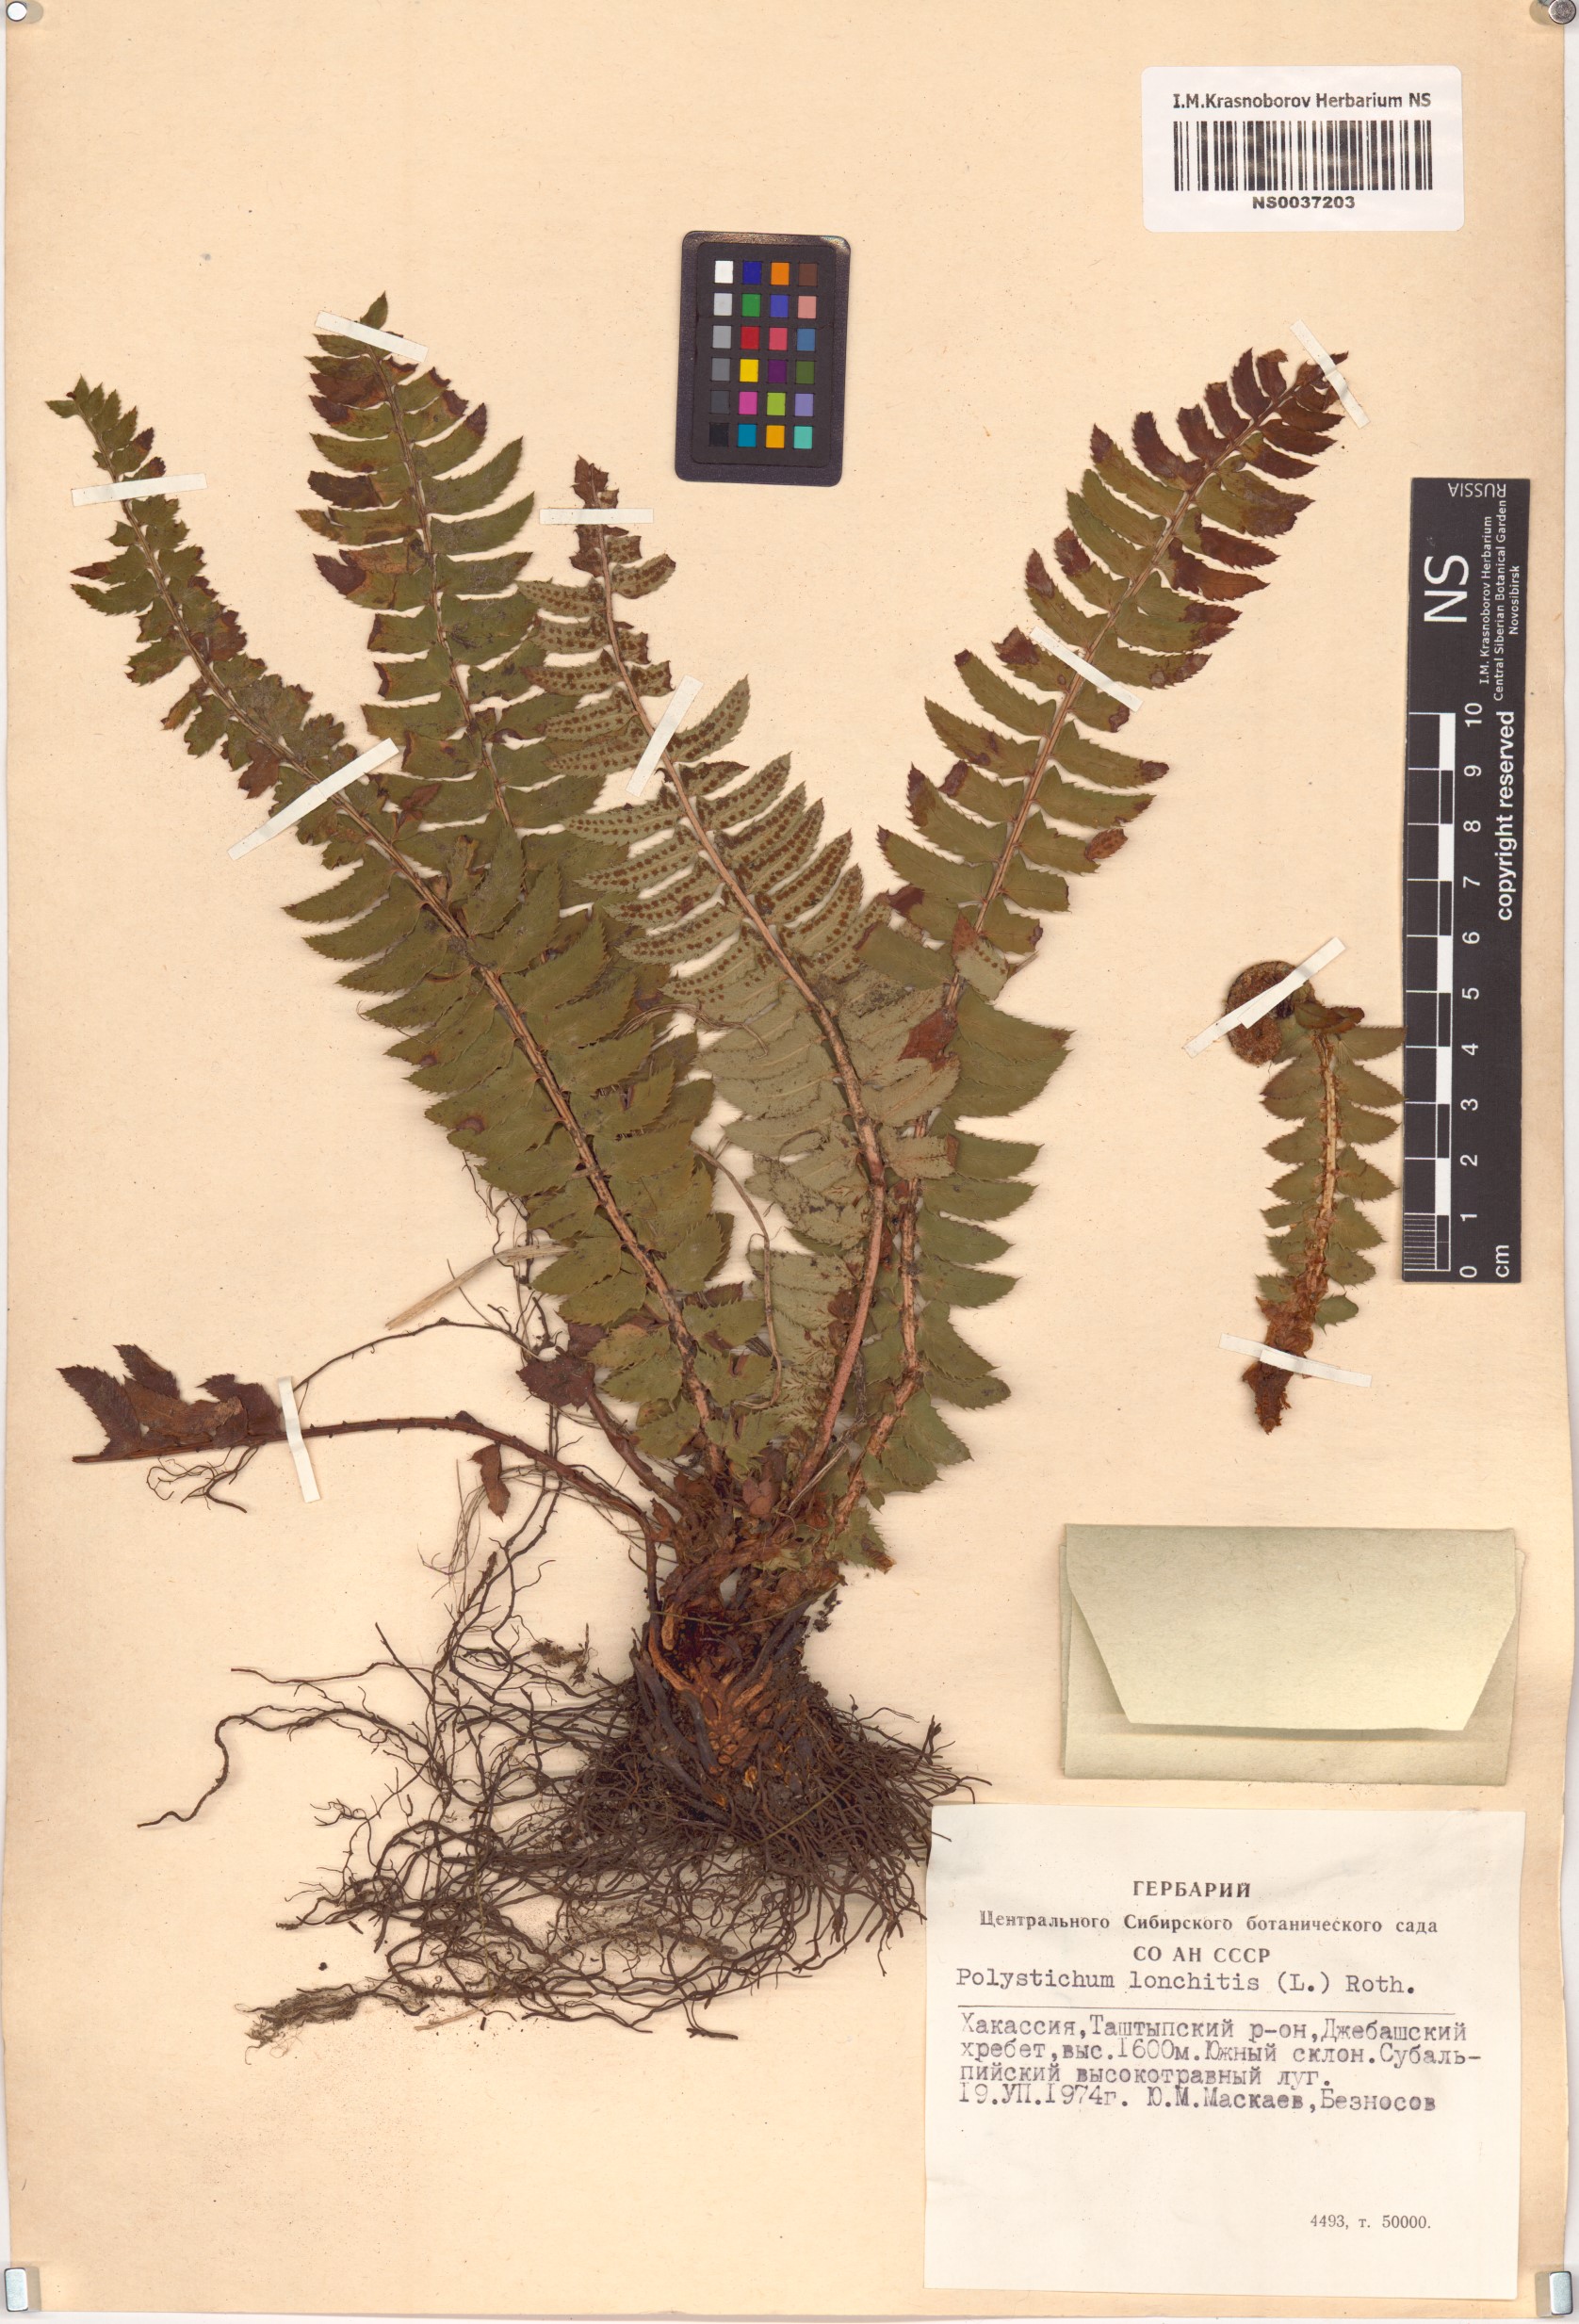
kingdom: Plantae
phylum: Tracheophyta
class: Polypodiopsida
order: Polypodiales
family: Dryopteridaceae
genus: Polystichum
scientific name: Polystichum lonchitis
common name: Holly fern
